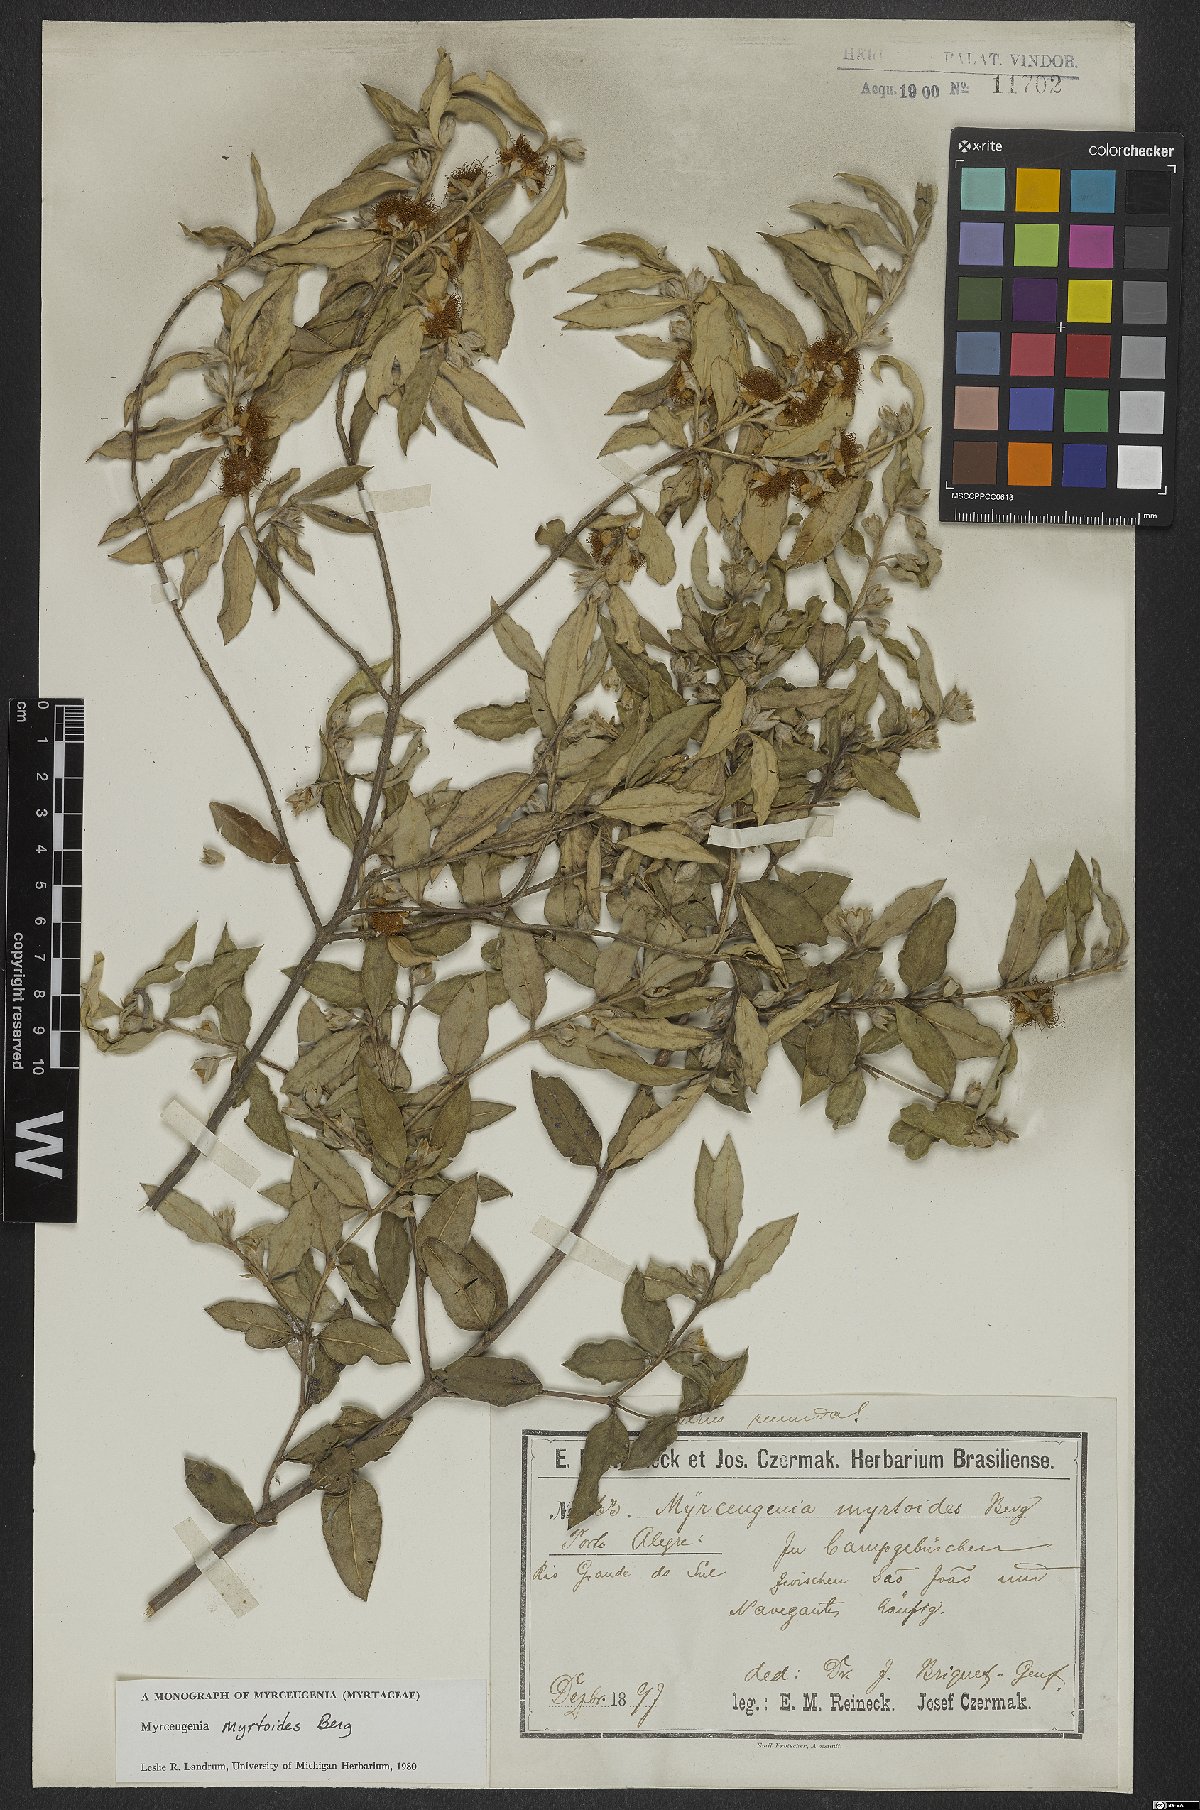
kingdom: Plantae
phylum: Tracheophyta
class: Magnoliopsida
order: Myrtales
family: Myrtaceae
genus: Myrceugenia
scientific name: Myrceugenia myrtoides
